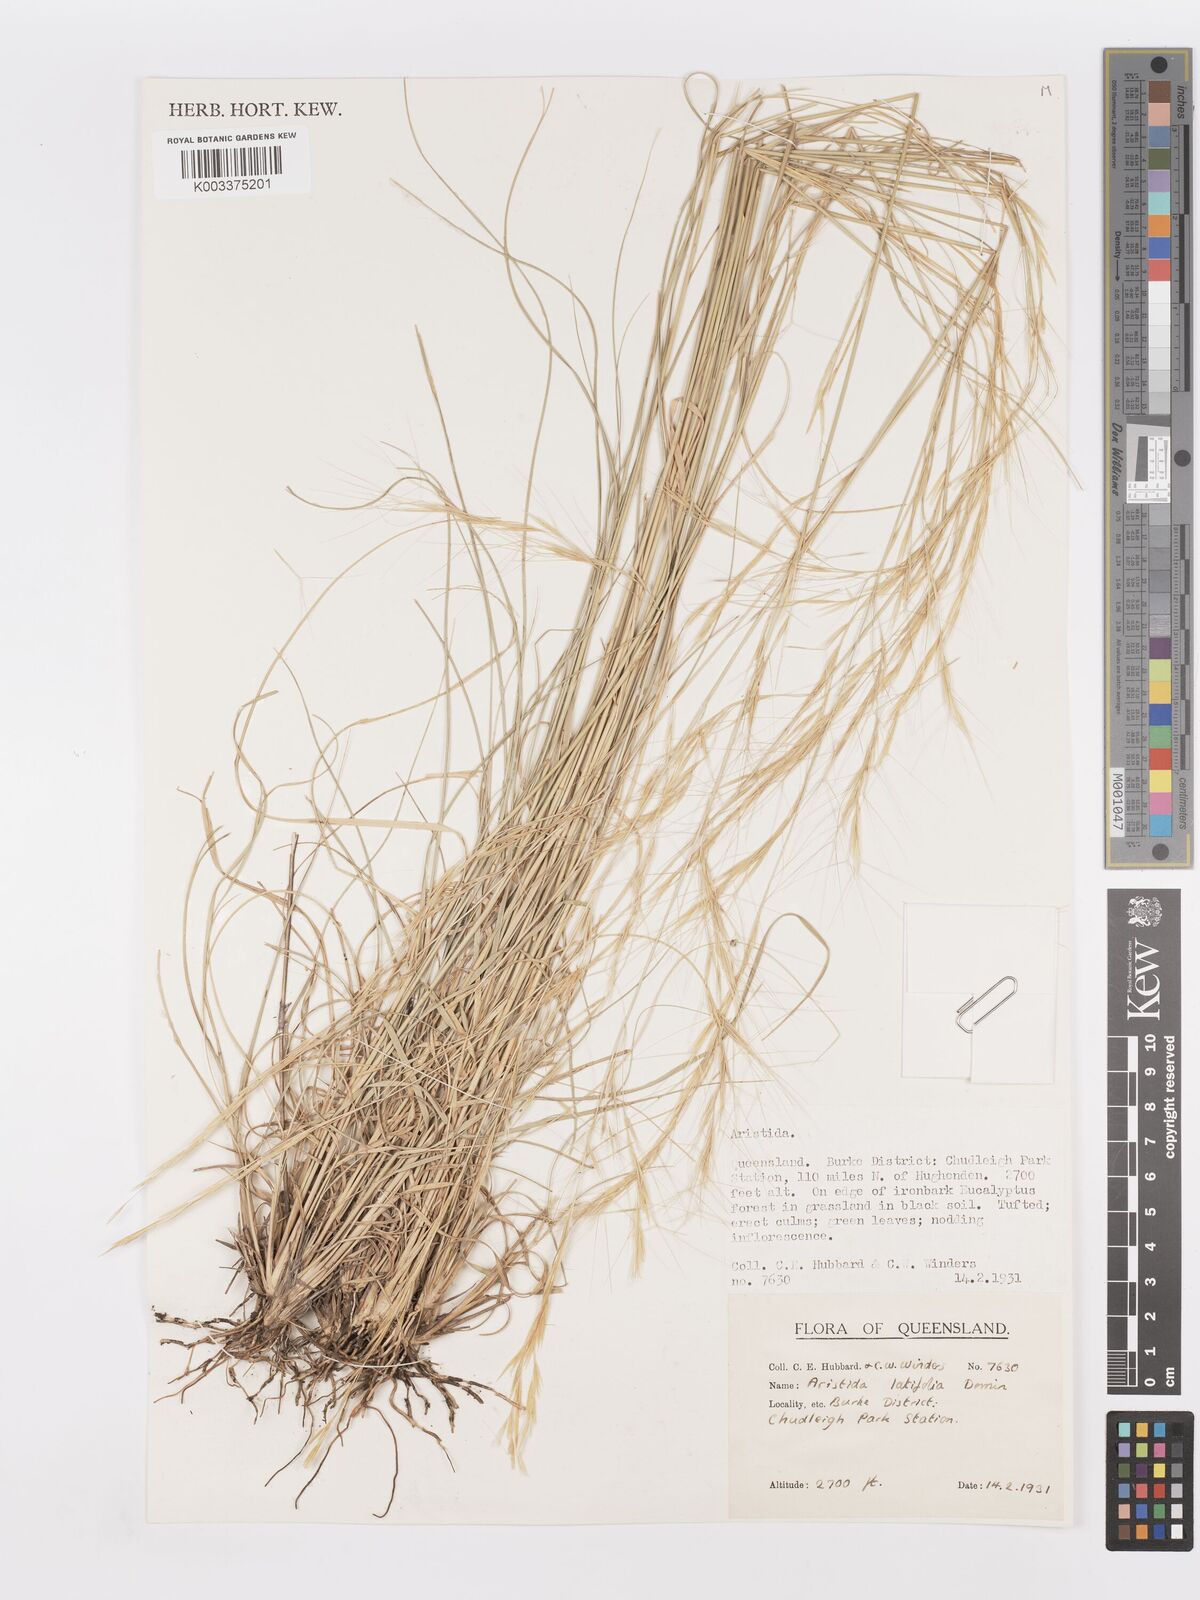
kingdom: Plantae
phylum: Tracheophyta
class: Liliopsida
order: Poales
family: Poaceae
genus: Aristida
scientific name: Aristida latifolia
